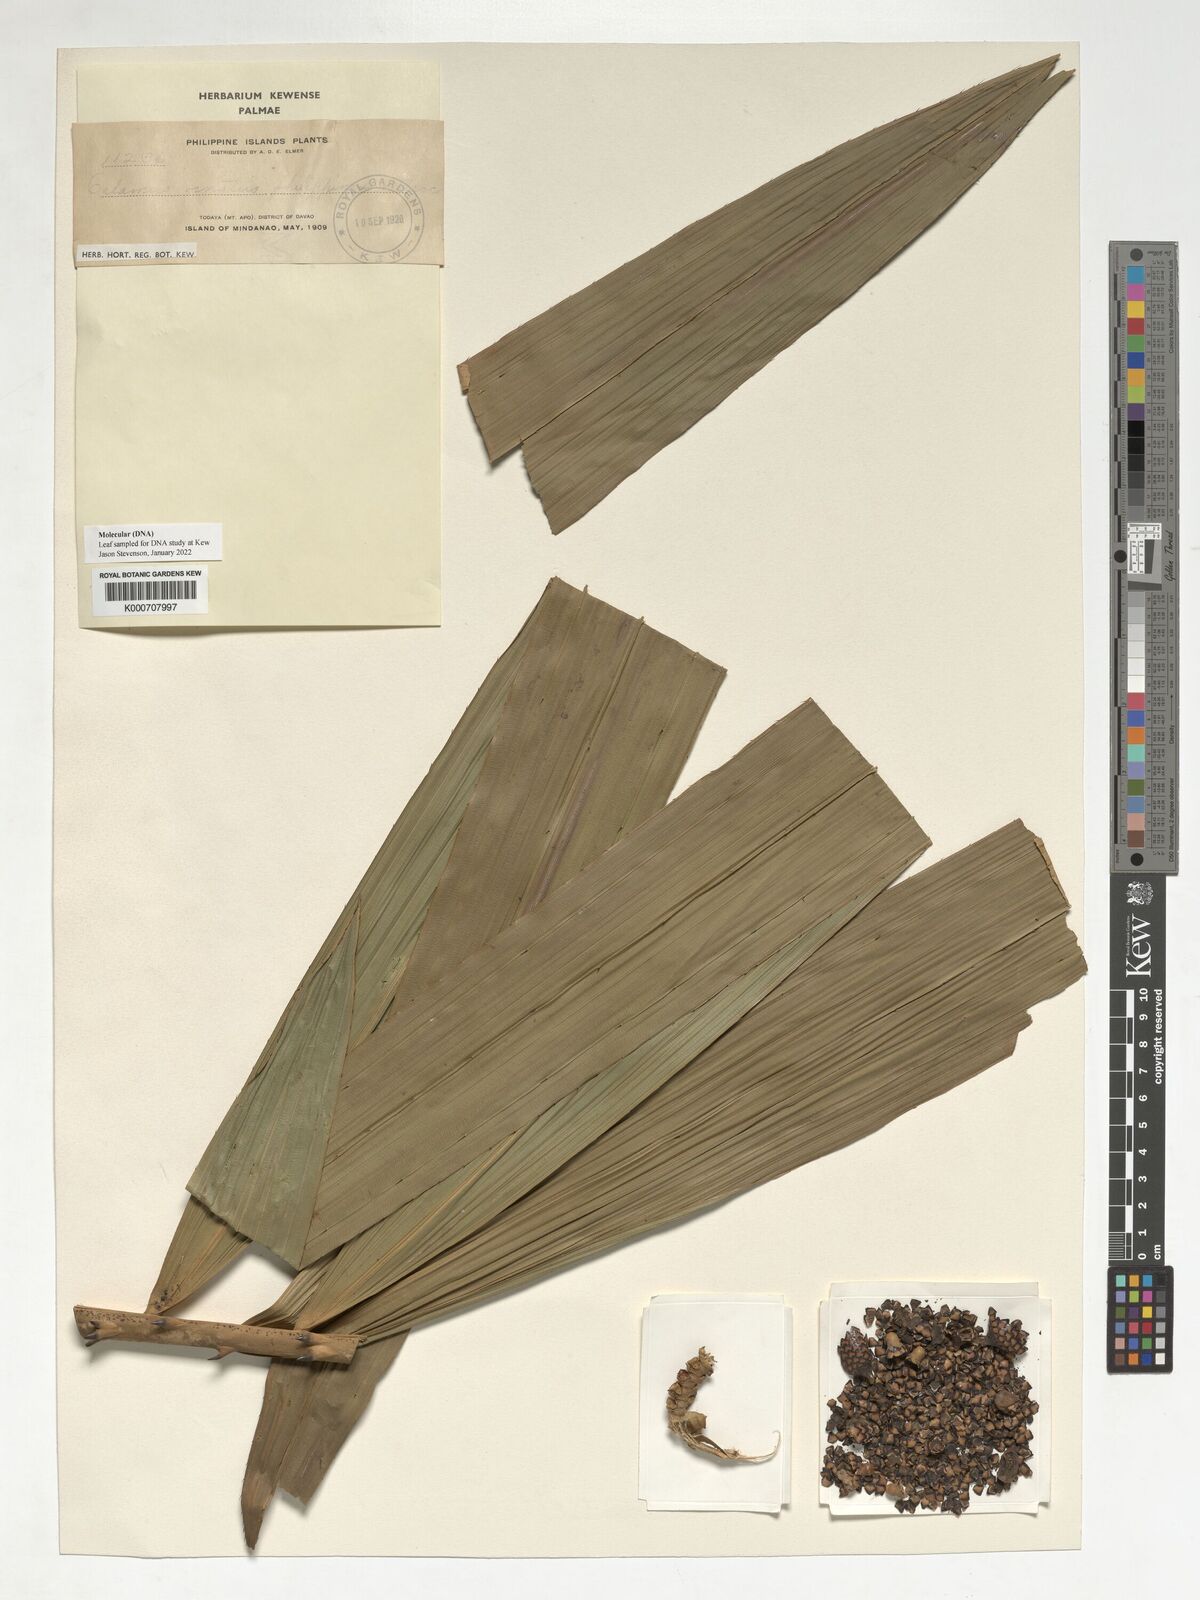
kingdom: Plantae
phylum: Tracheophyta
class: Liliopsida
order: Arecales
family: Arecaceae
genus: Calamus
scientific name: Calamus ornatus
